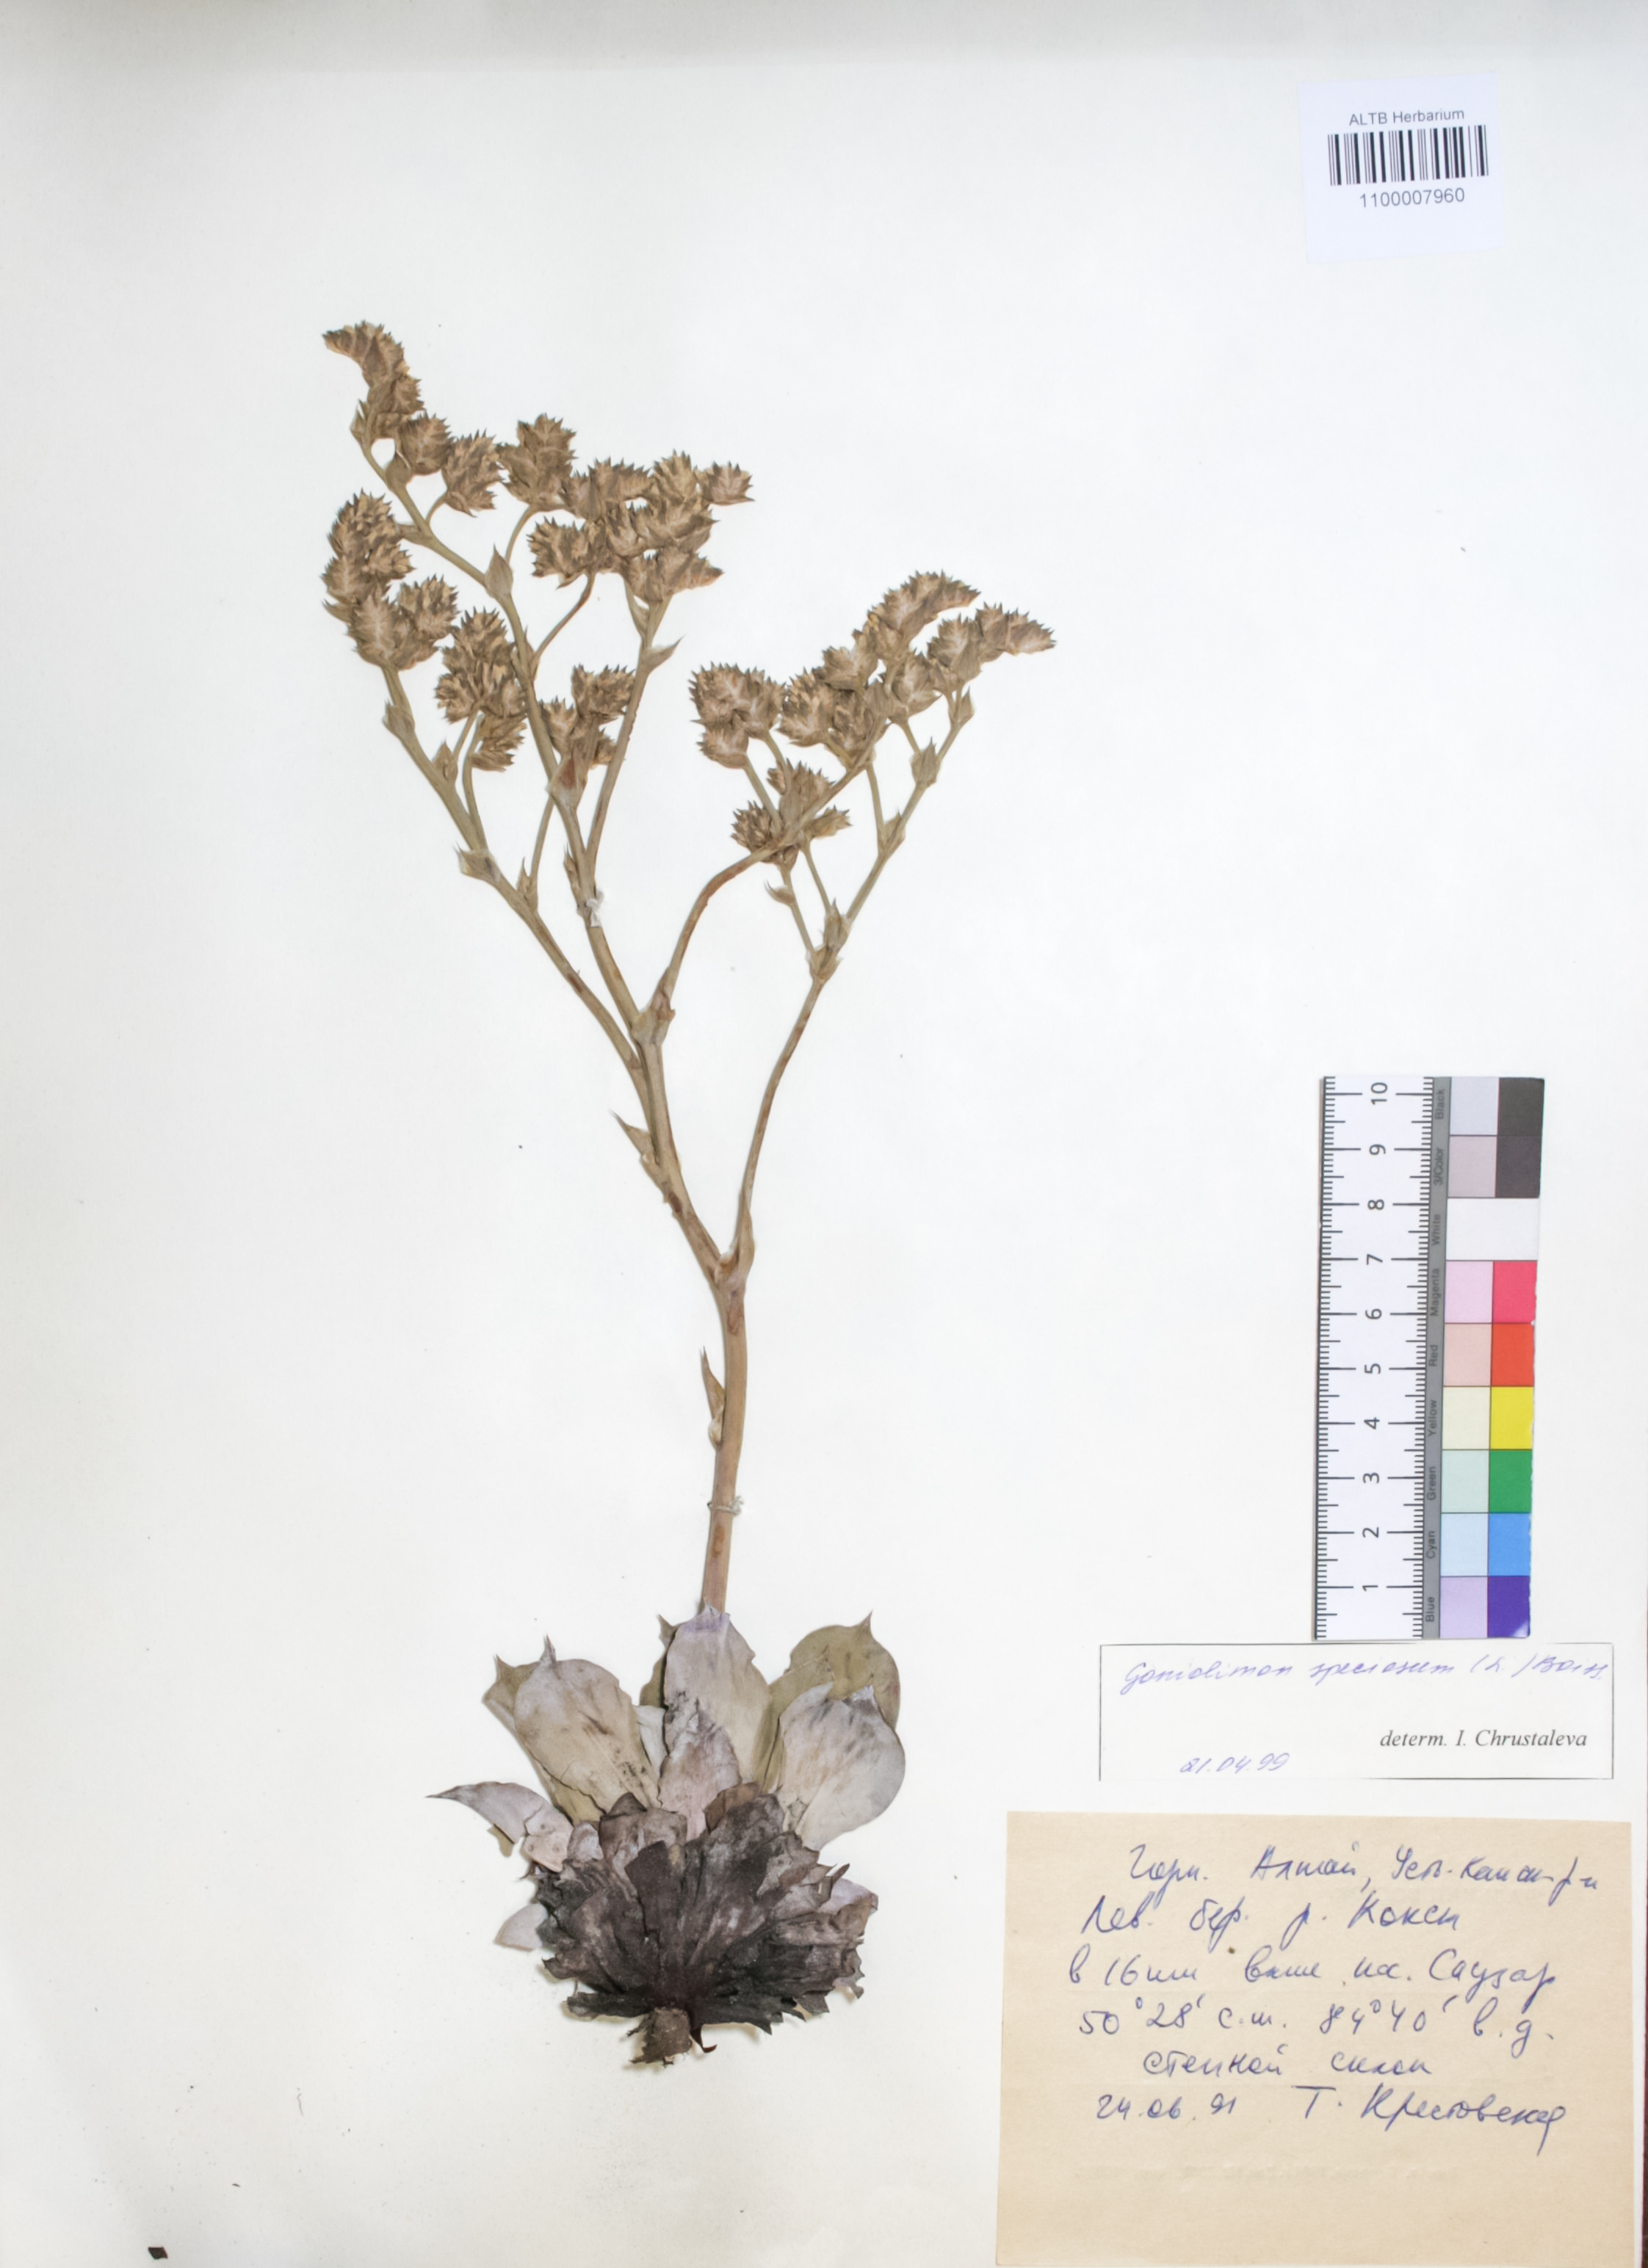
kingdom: Plantae
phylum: Tracheophyta
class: Magnoliopsida
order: Caryophyllales
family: Plumbaginaceae
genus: Goniolimon
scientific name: Goniolimon speciosum
